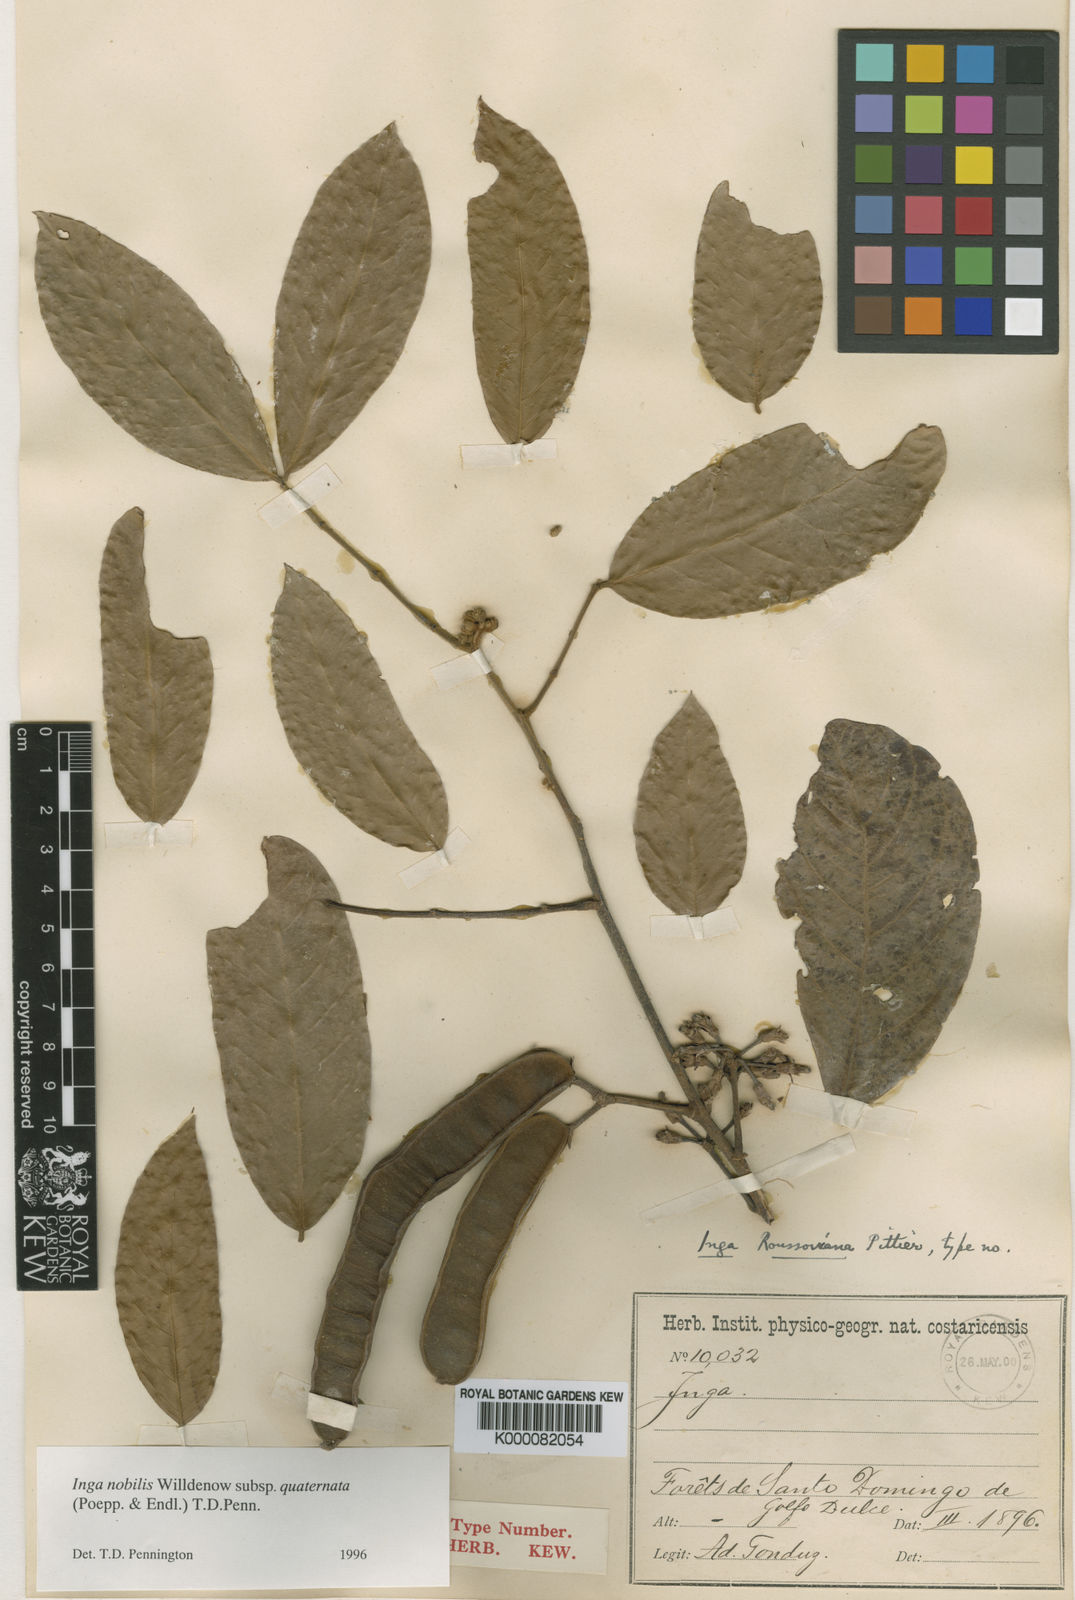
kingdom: Plantae
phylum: Tracheophyta
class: Magnoliopsida
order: Fabales
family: Fabaceae
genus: Inga
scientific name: Inga nobilis
